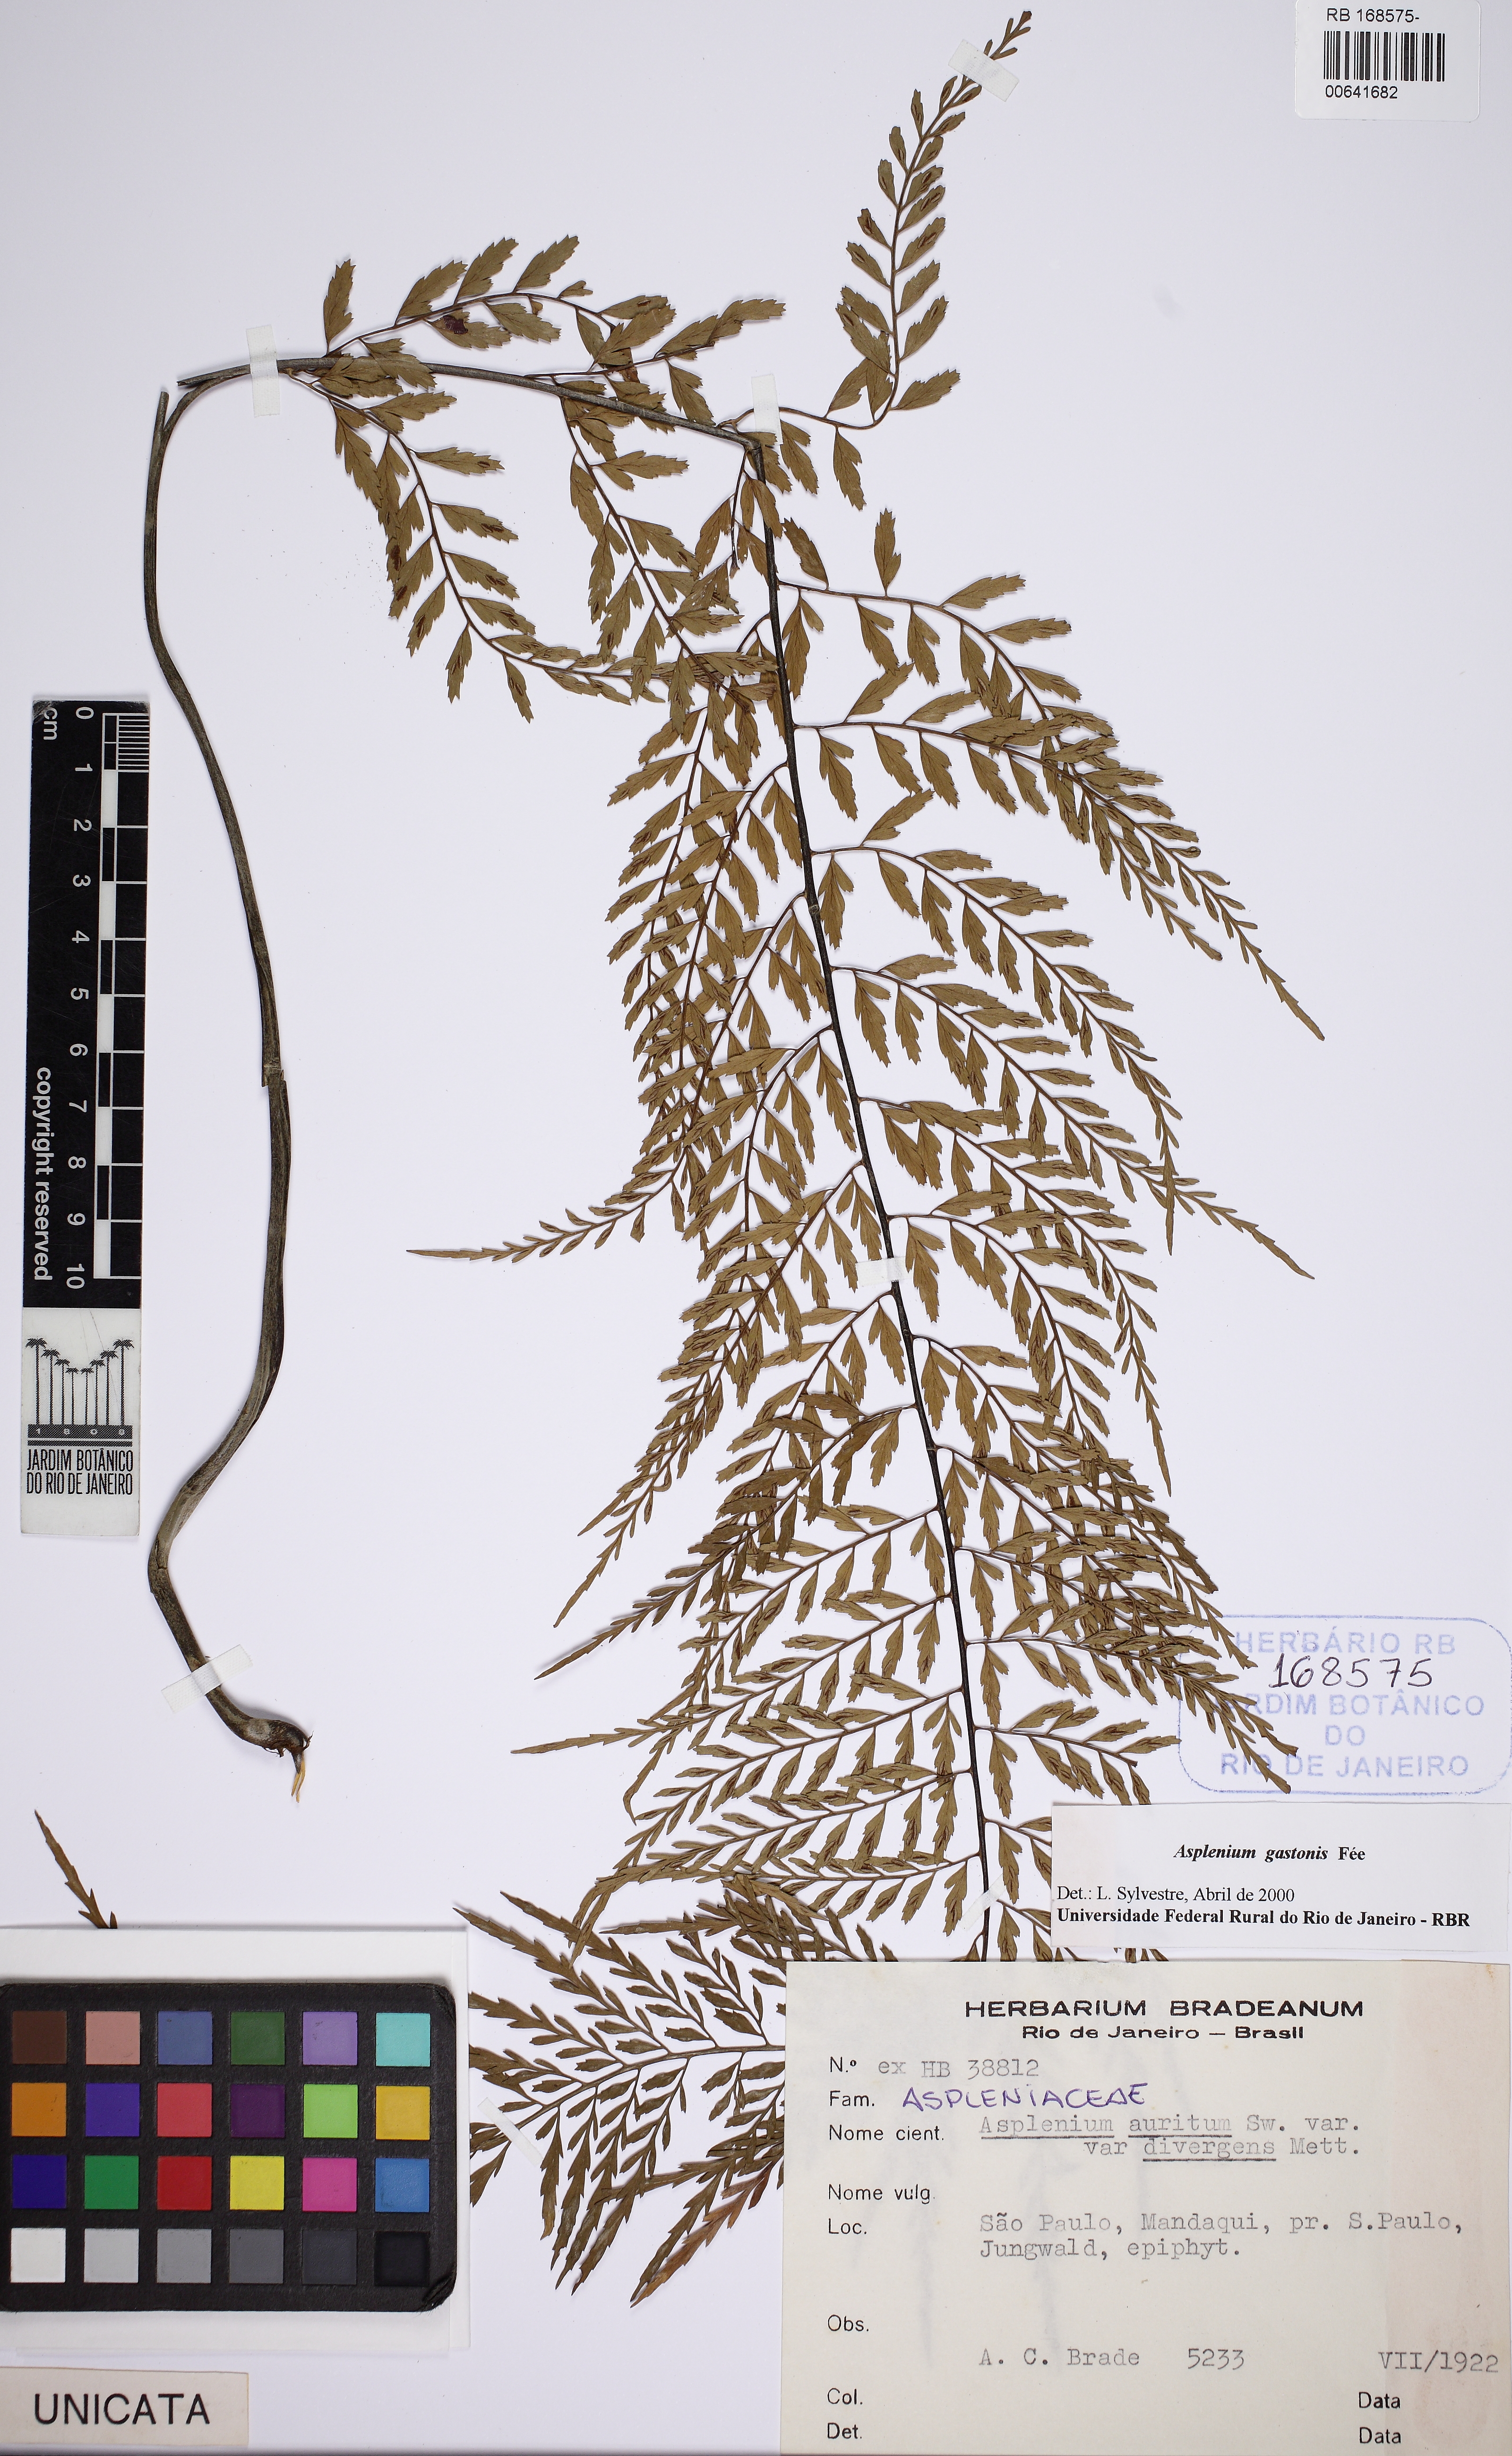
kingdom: Plantae
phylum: Tracheophyta
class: Polypodiopsida
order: Polypodiales
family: Aspleniaceae
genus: Asplenium
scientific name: Asplenium gastonis
